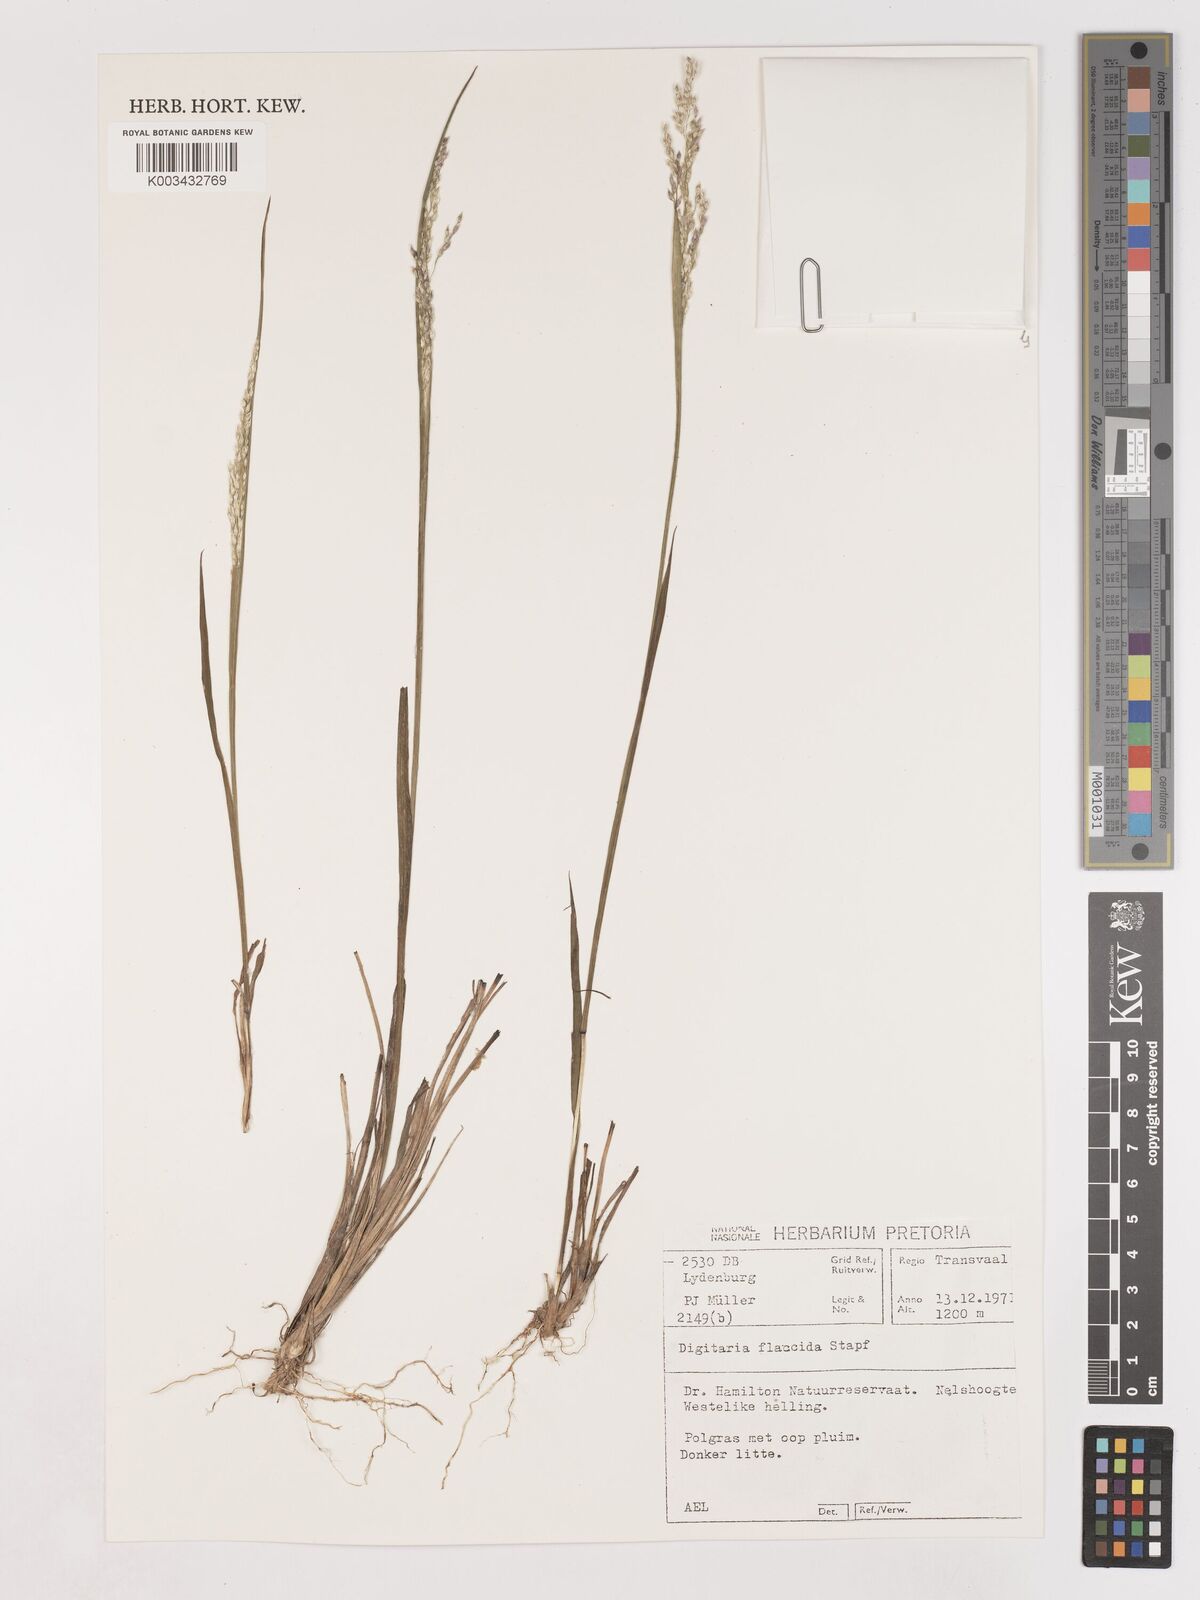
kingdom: Plantae
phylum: Tracheophyta
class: Liliopsida
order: Poales
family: Poaceae
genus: Digitaria
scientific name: Digitaria flaccida
